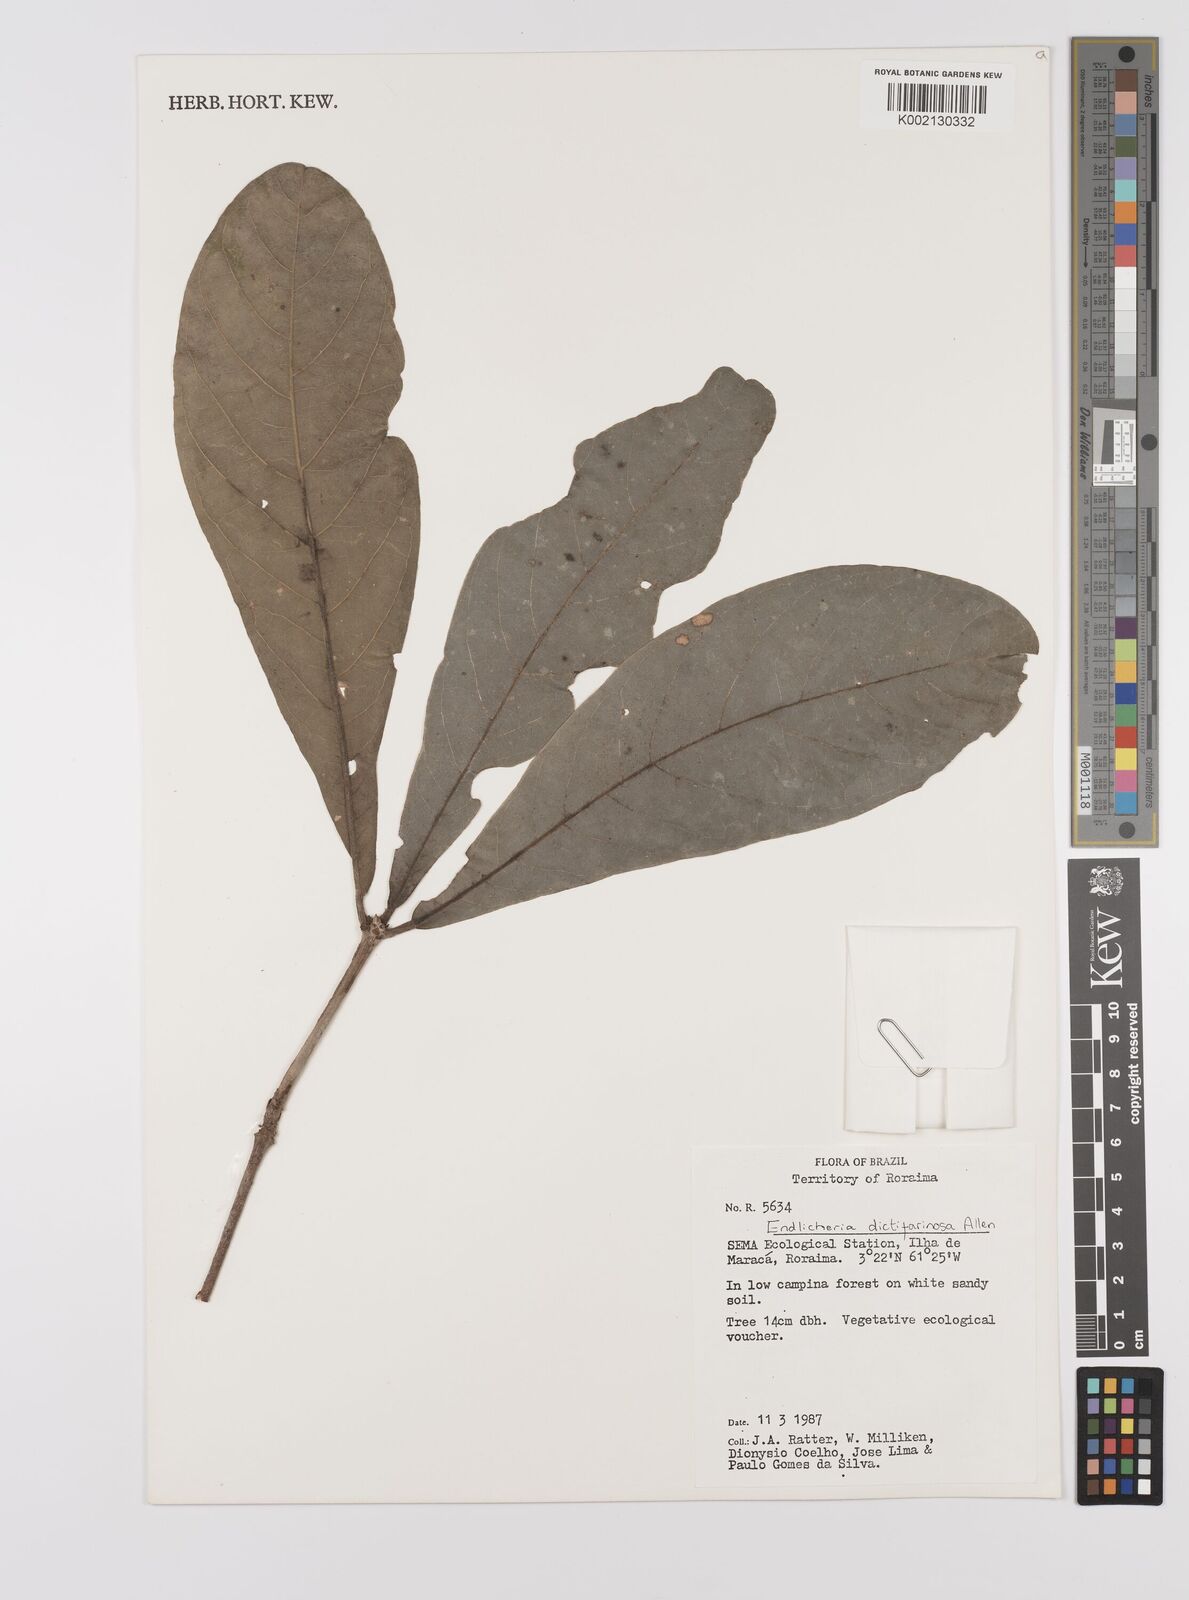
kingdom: Plantae
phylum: Tracheophyta
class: Magnoliopsida
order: Laurales
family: Lauraceae
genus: Endlicheria
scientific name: Endlicheria dictifarinosa
